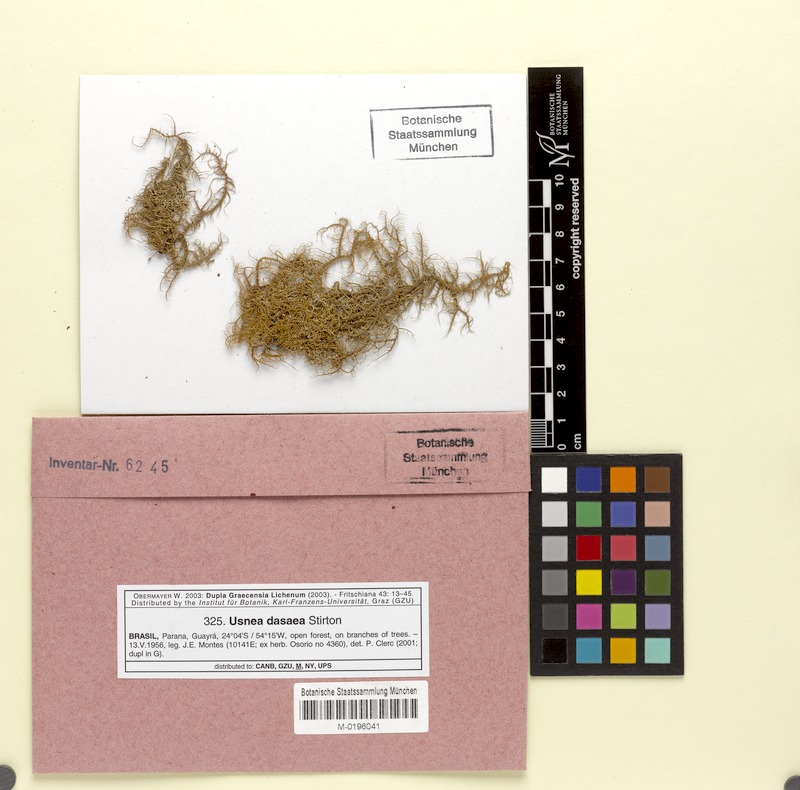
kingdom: Fungi
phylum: Ascomycota
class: Lecanoromycetes
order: Lecanorales
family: Parmeliaceae
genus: Usnea
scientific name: Usnea cornuta
